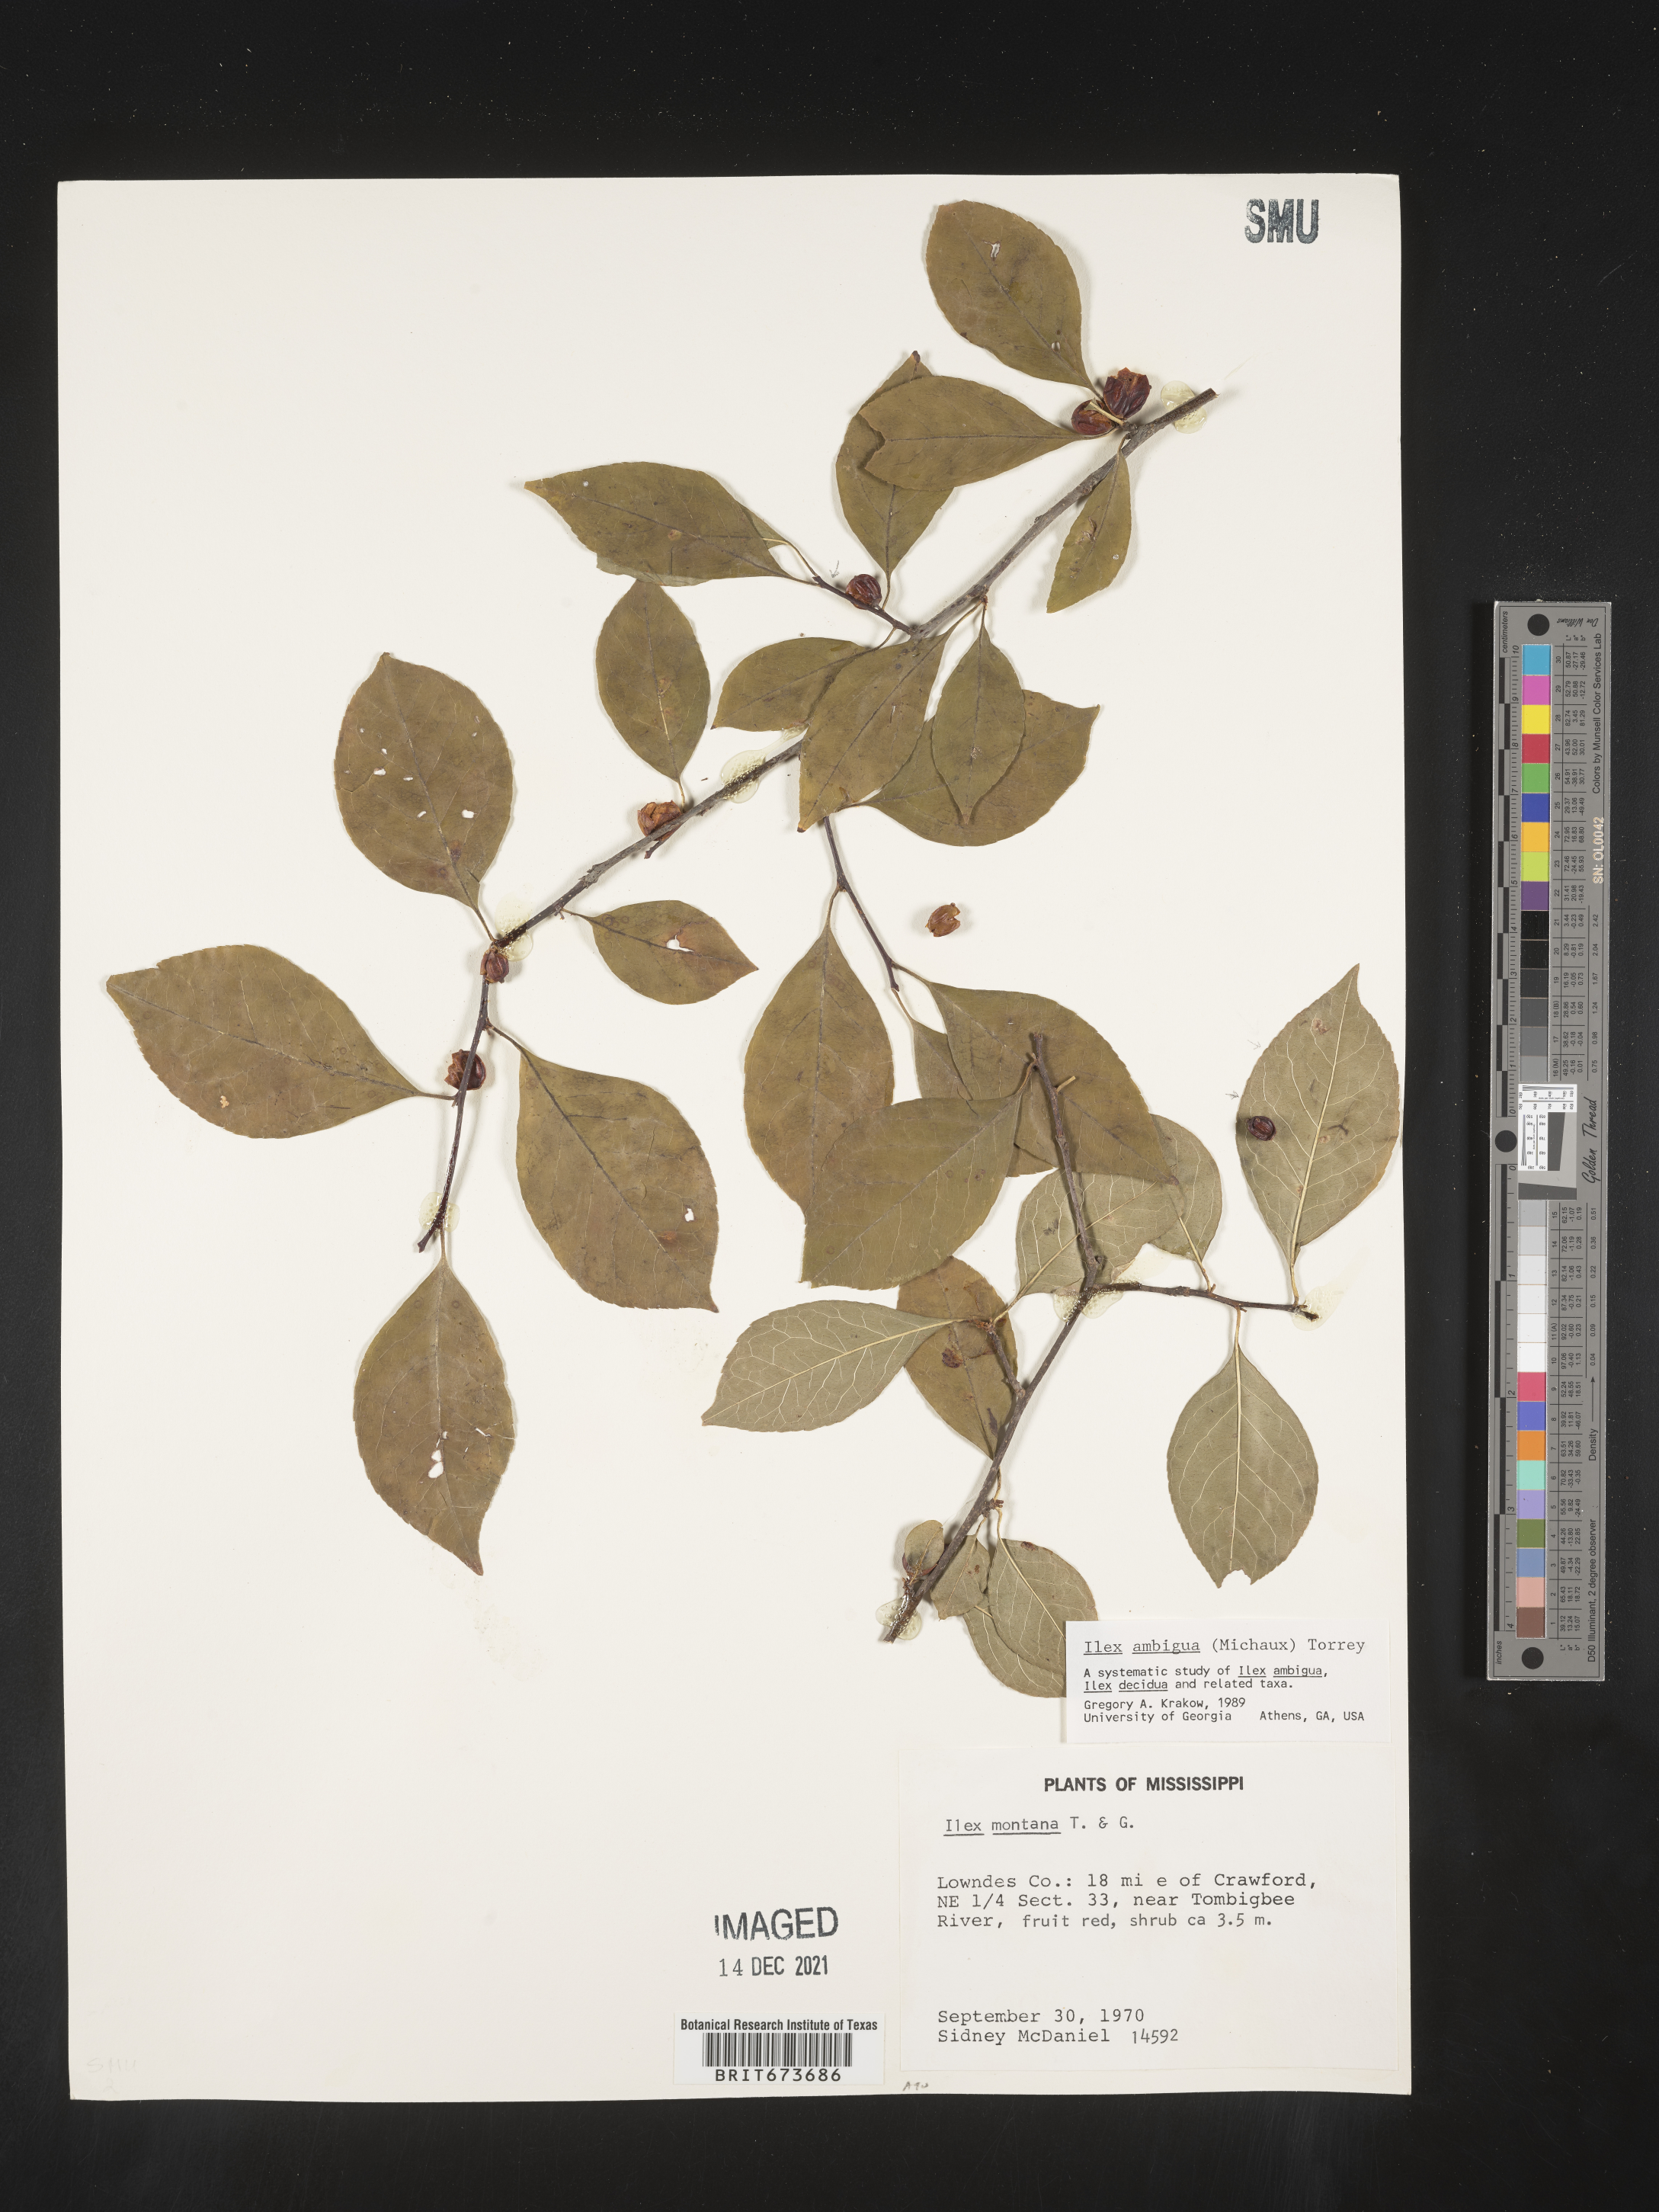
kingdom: Plantae
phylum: Tracheophyta
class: Magnoliopsida
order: Aquifoliales
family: Aquifoliaceae
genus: Ilex
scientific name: Ilex ambigua
